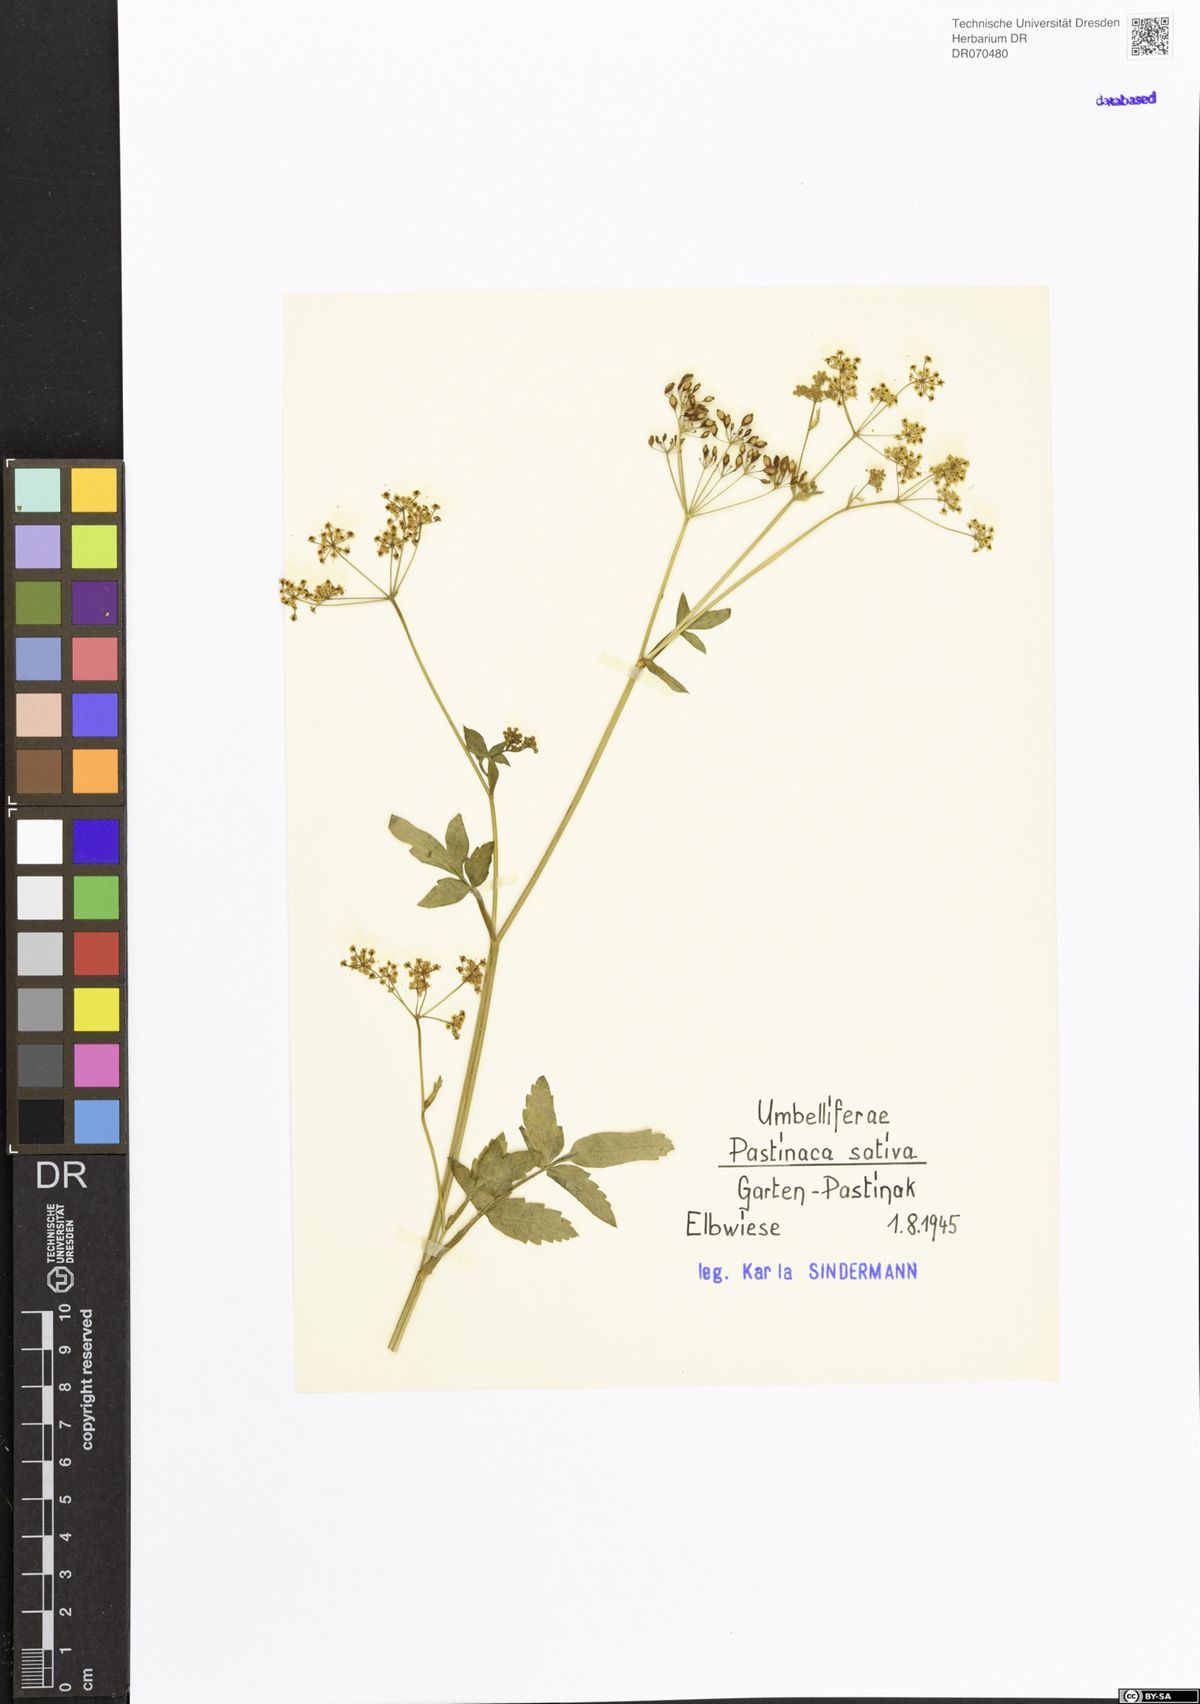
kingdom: Plantae
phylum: Tracheophyta
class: Magnoliopsida
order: Apiales
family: Apiaceae
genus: Pastinaca
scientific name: Pastinaca sativa
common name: Wild parsnip
